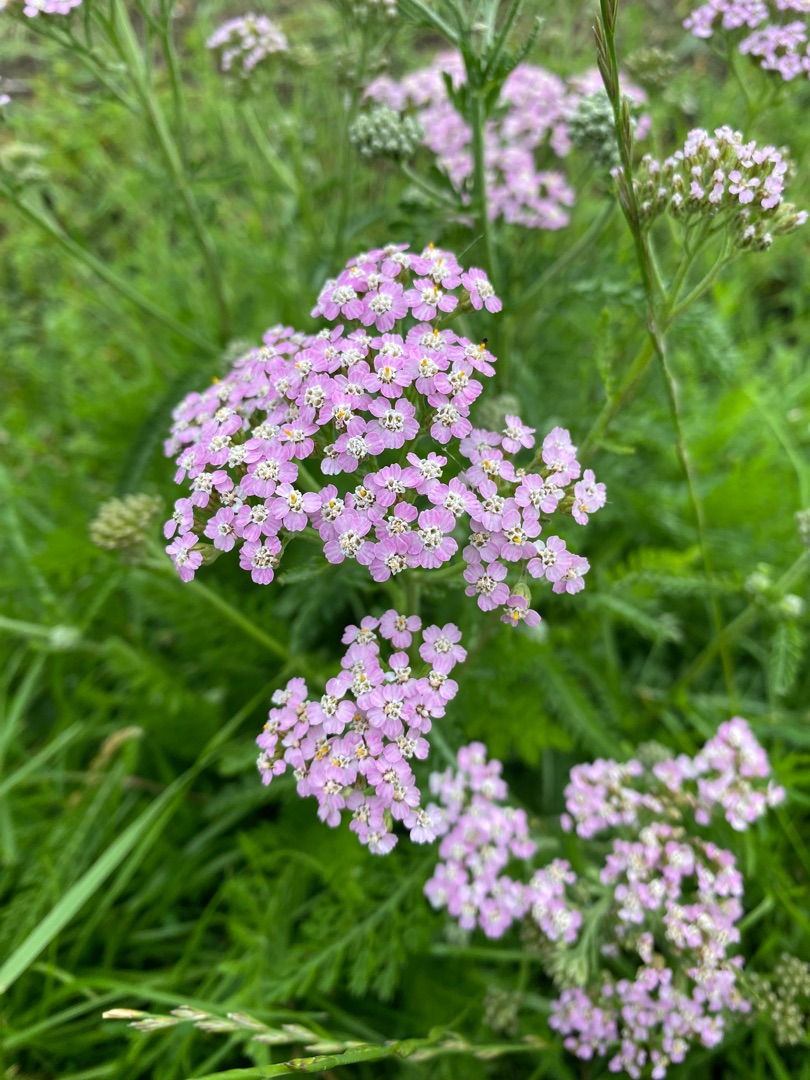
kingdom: Plantae
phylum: Tracheophyta
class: Magnoliopsida
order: Asterales
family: Asteraceae
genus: Achillea
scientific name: Achillea millefolium
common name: Almindelig røllike
